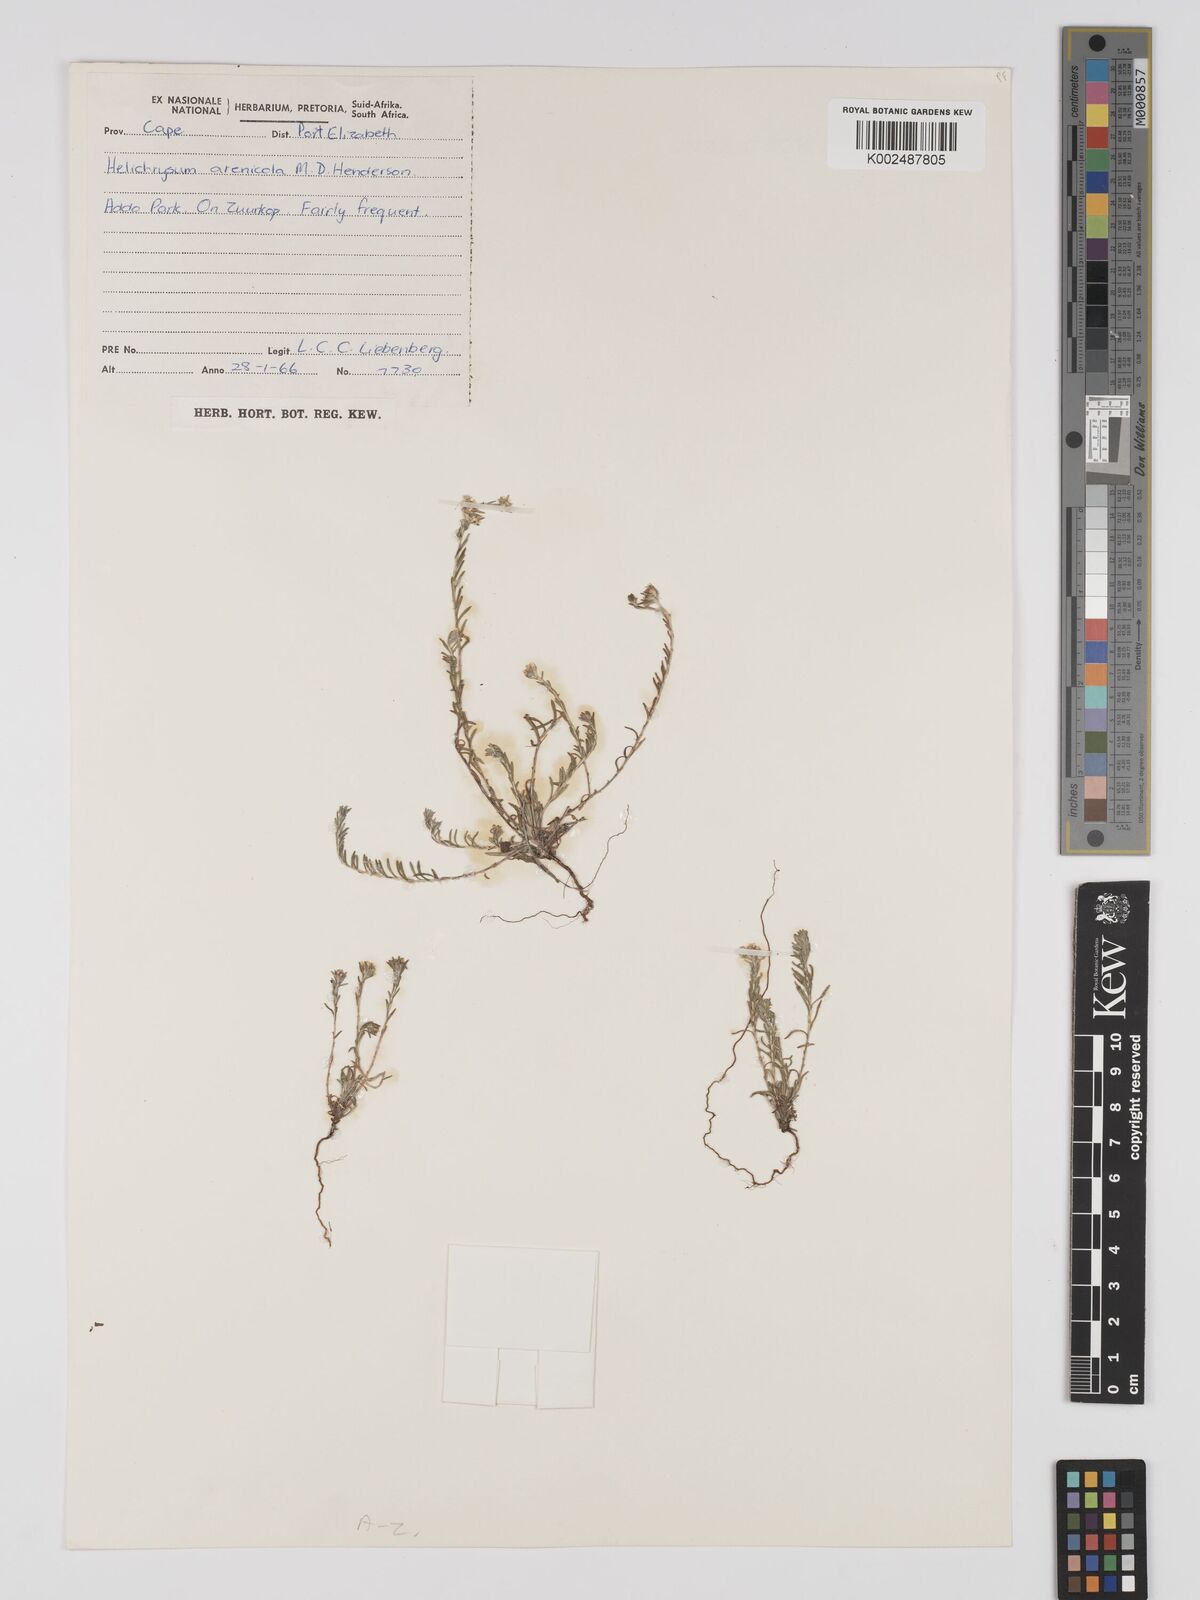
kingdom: Plantae
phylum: Tracheophyta
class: Magnoliopsida
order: Asterales
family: Asteraceae
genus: Helichrysum
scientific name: Helichrysum arenicola
